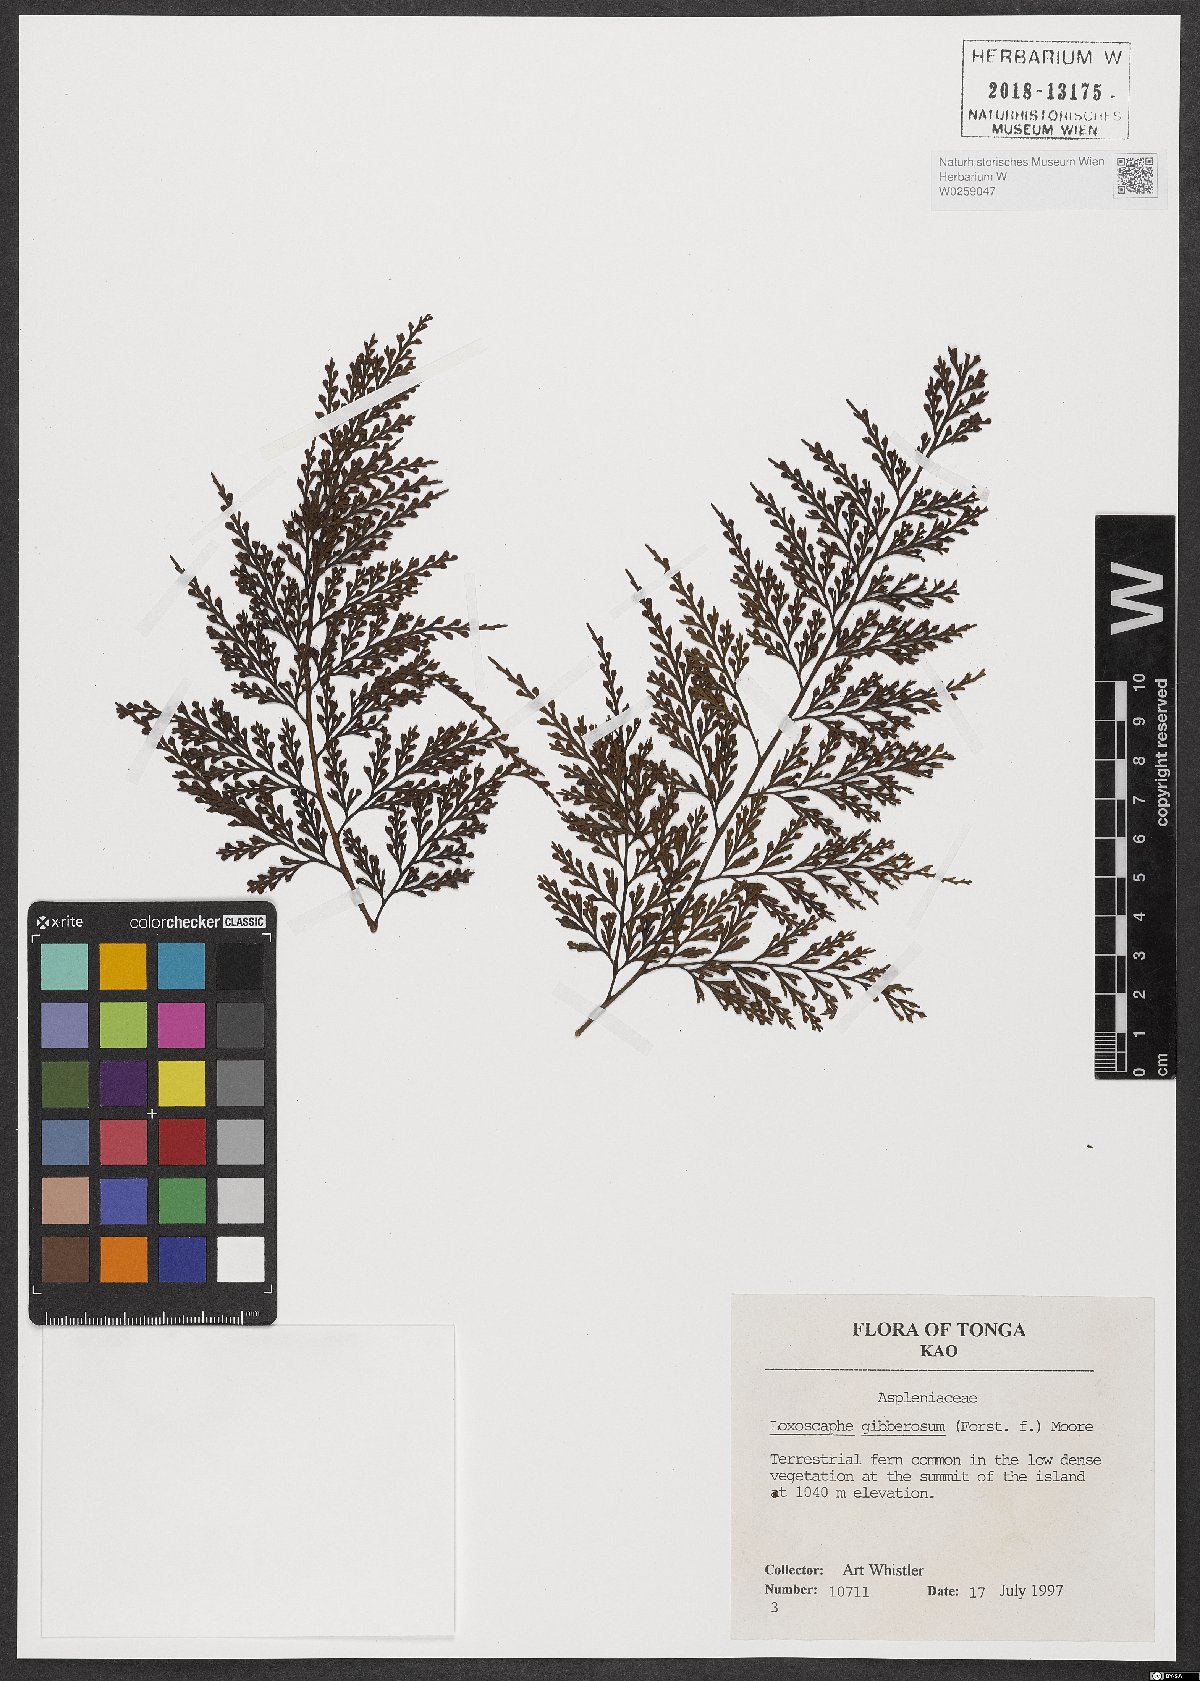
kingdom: Plantae
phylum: Tracheophyta
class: Polypodiopsida
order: Polypodiales
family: Aspleniaceae
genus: Asplenium
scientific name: Asplenium gibberosum
